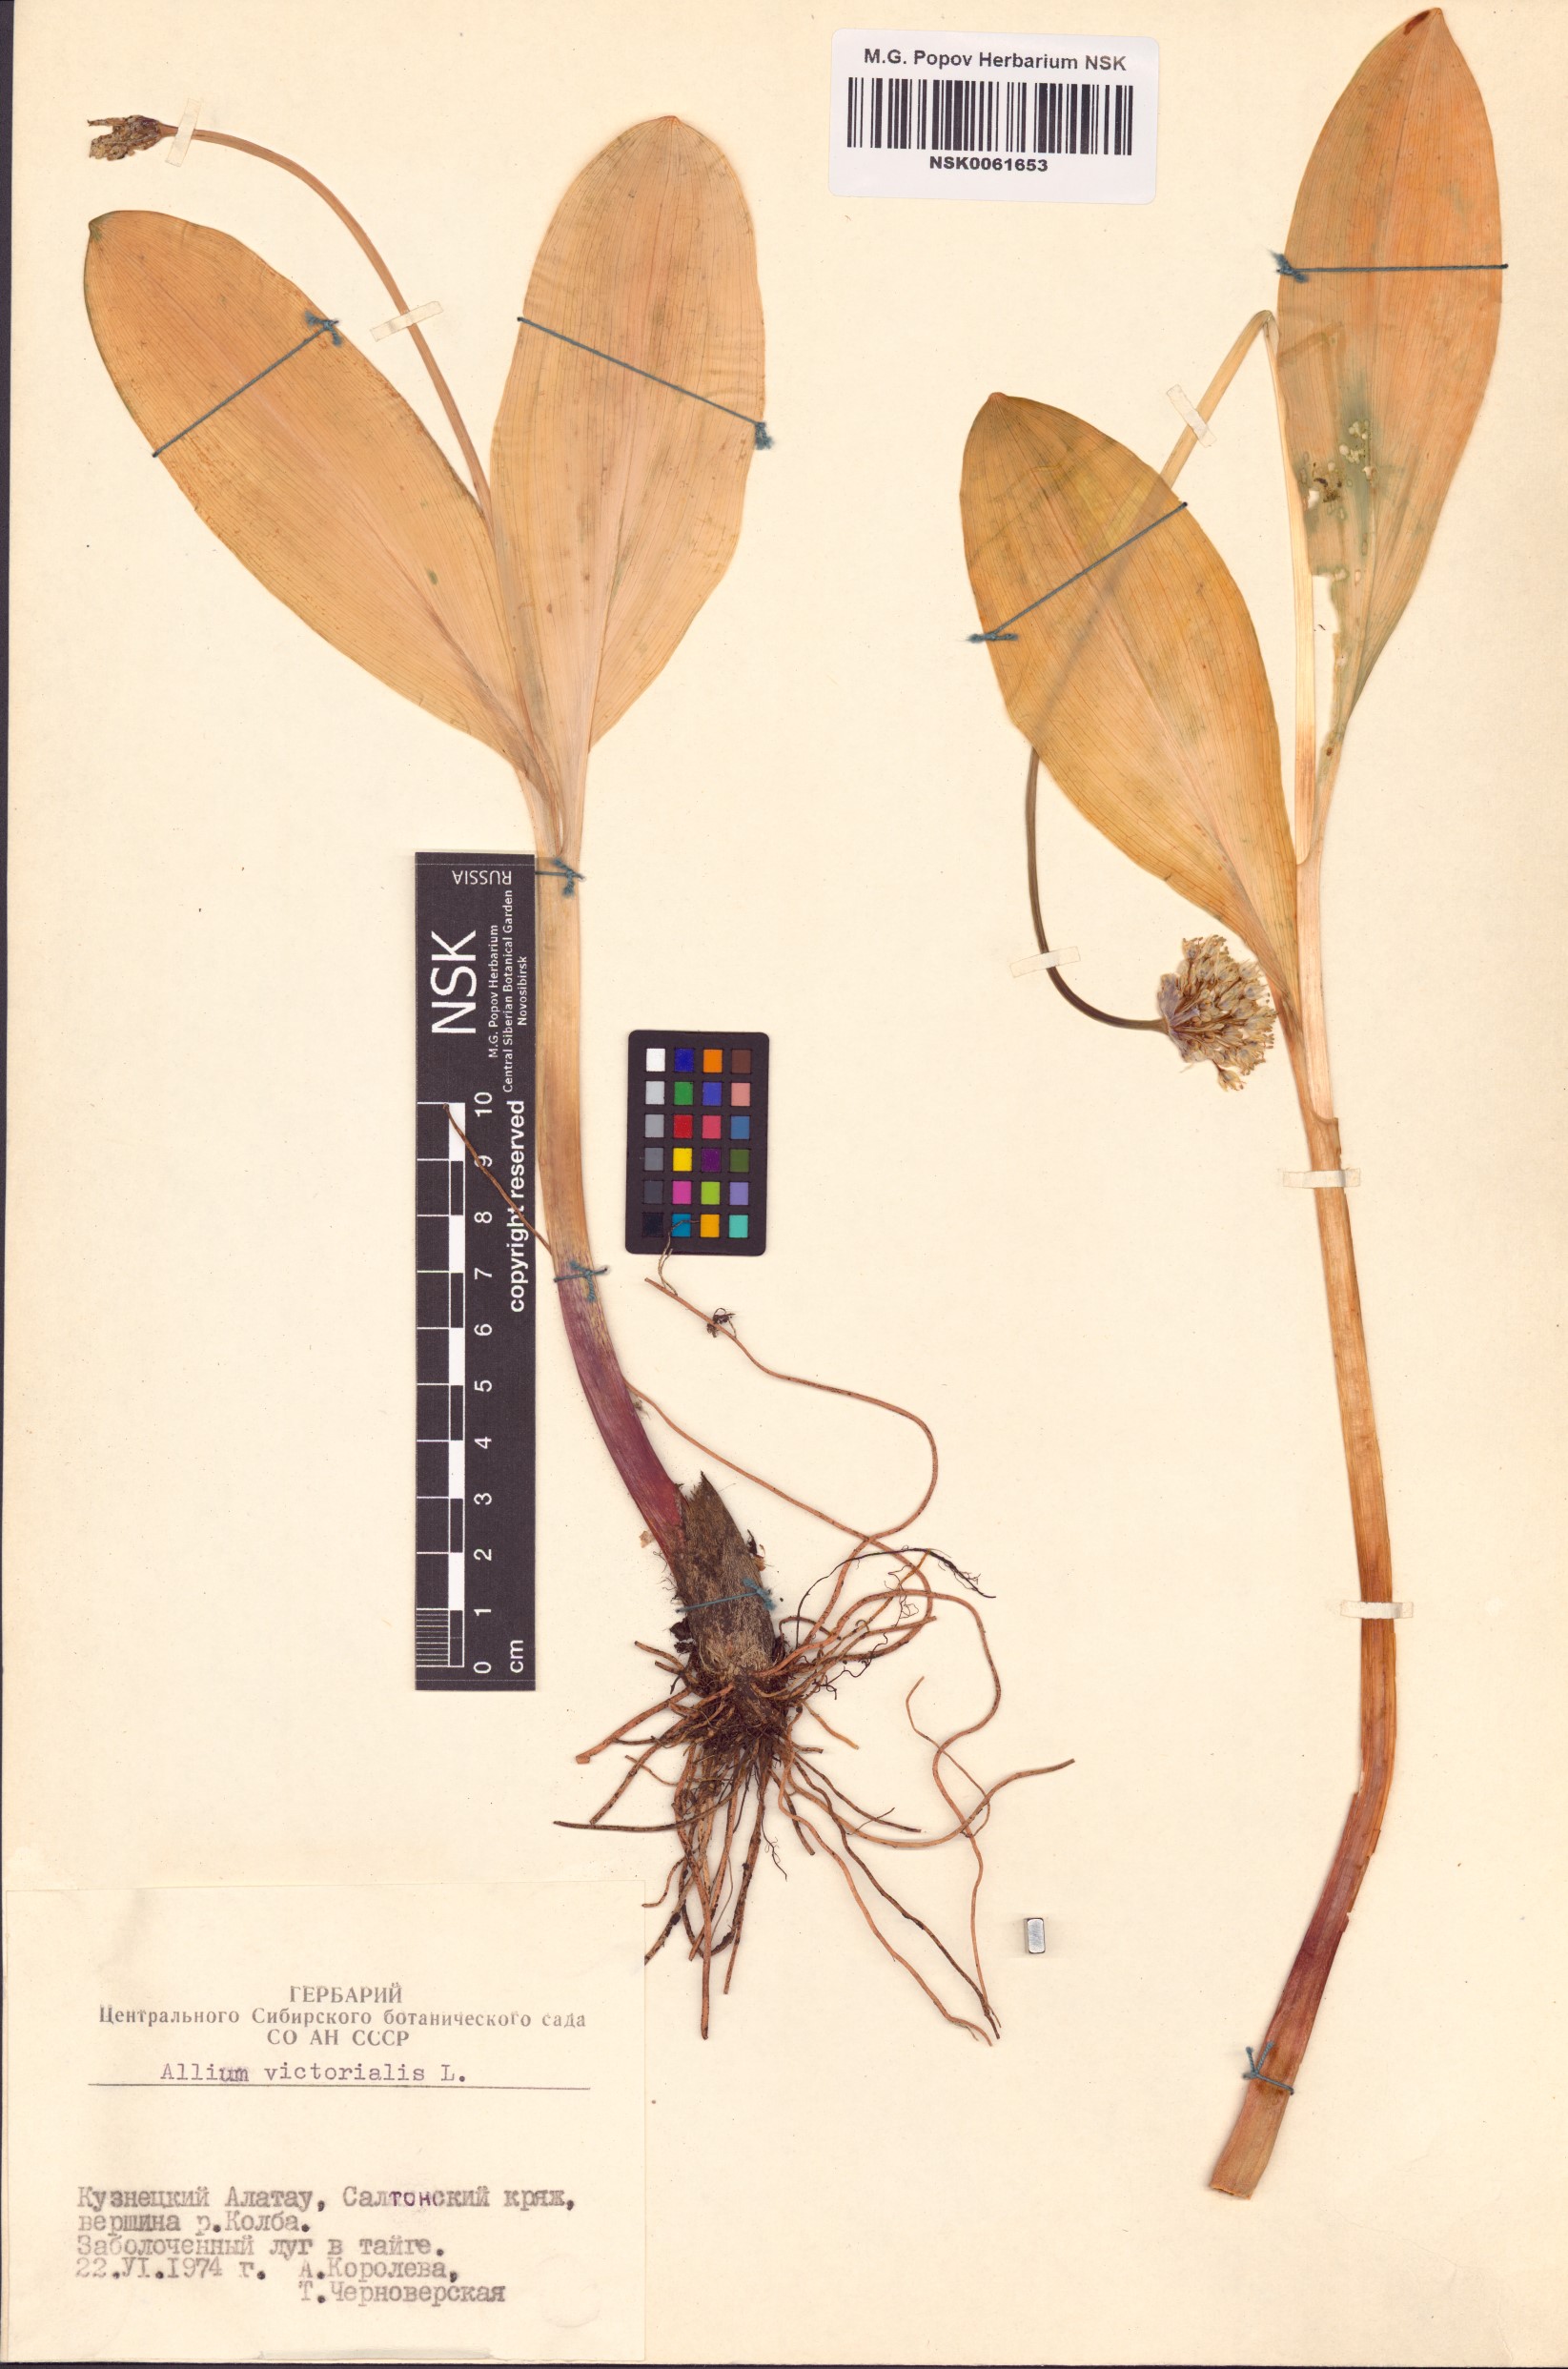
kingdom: Plantae
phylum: Tracheophyta
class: Liliopsida
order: Asparagales
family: Amaryllidaceae
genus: Allium
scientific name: Allium victorialis
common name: Alpine leek
